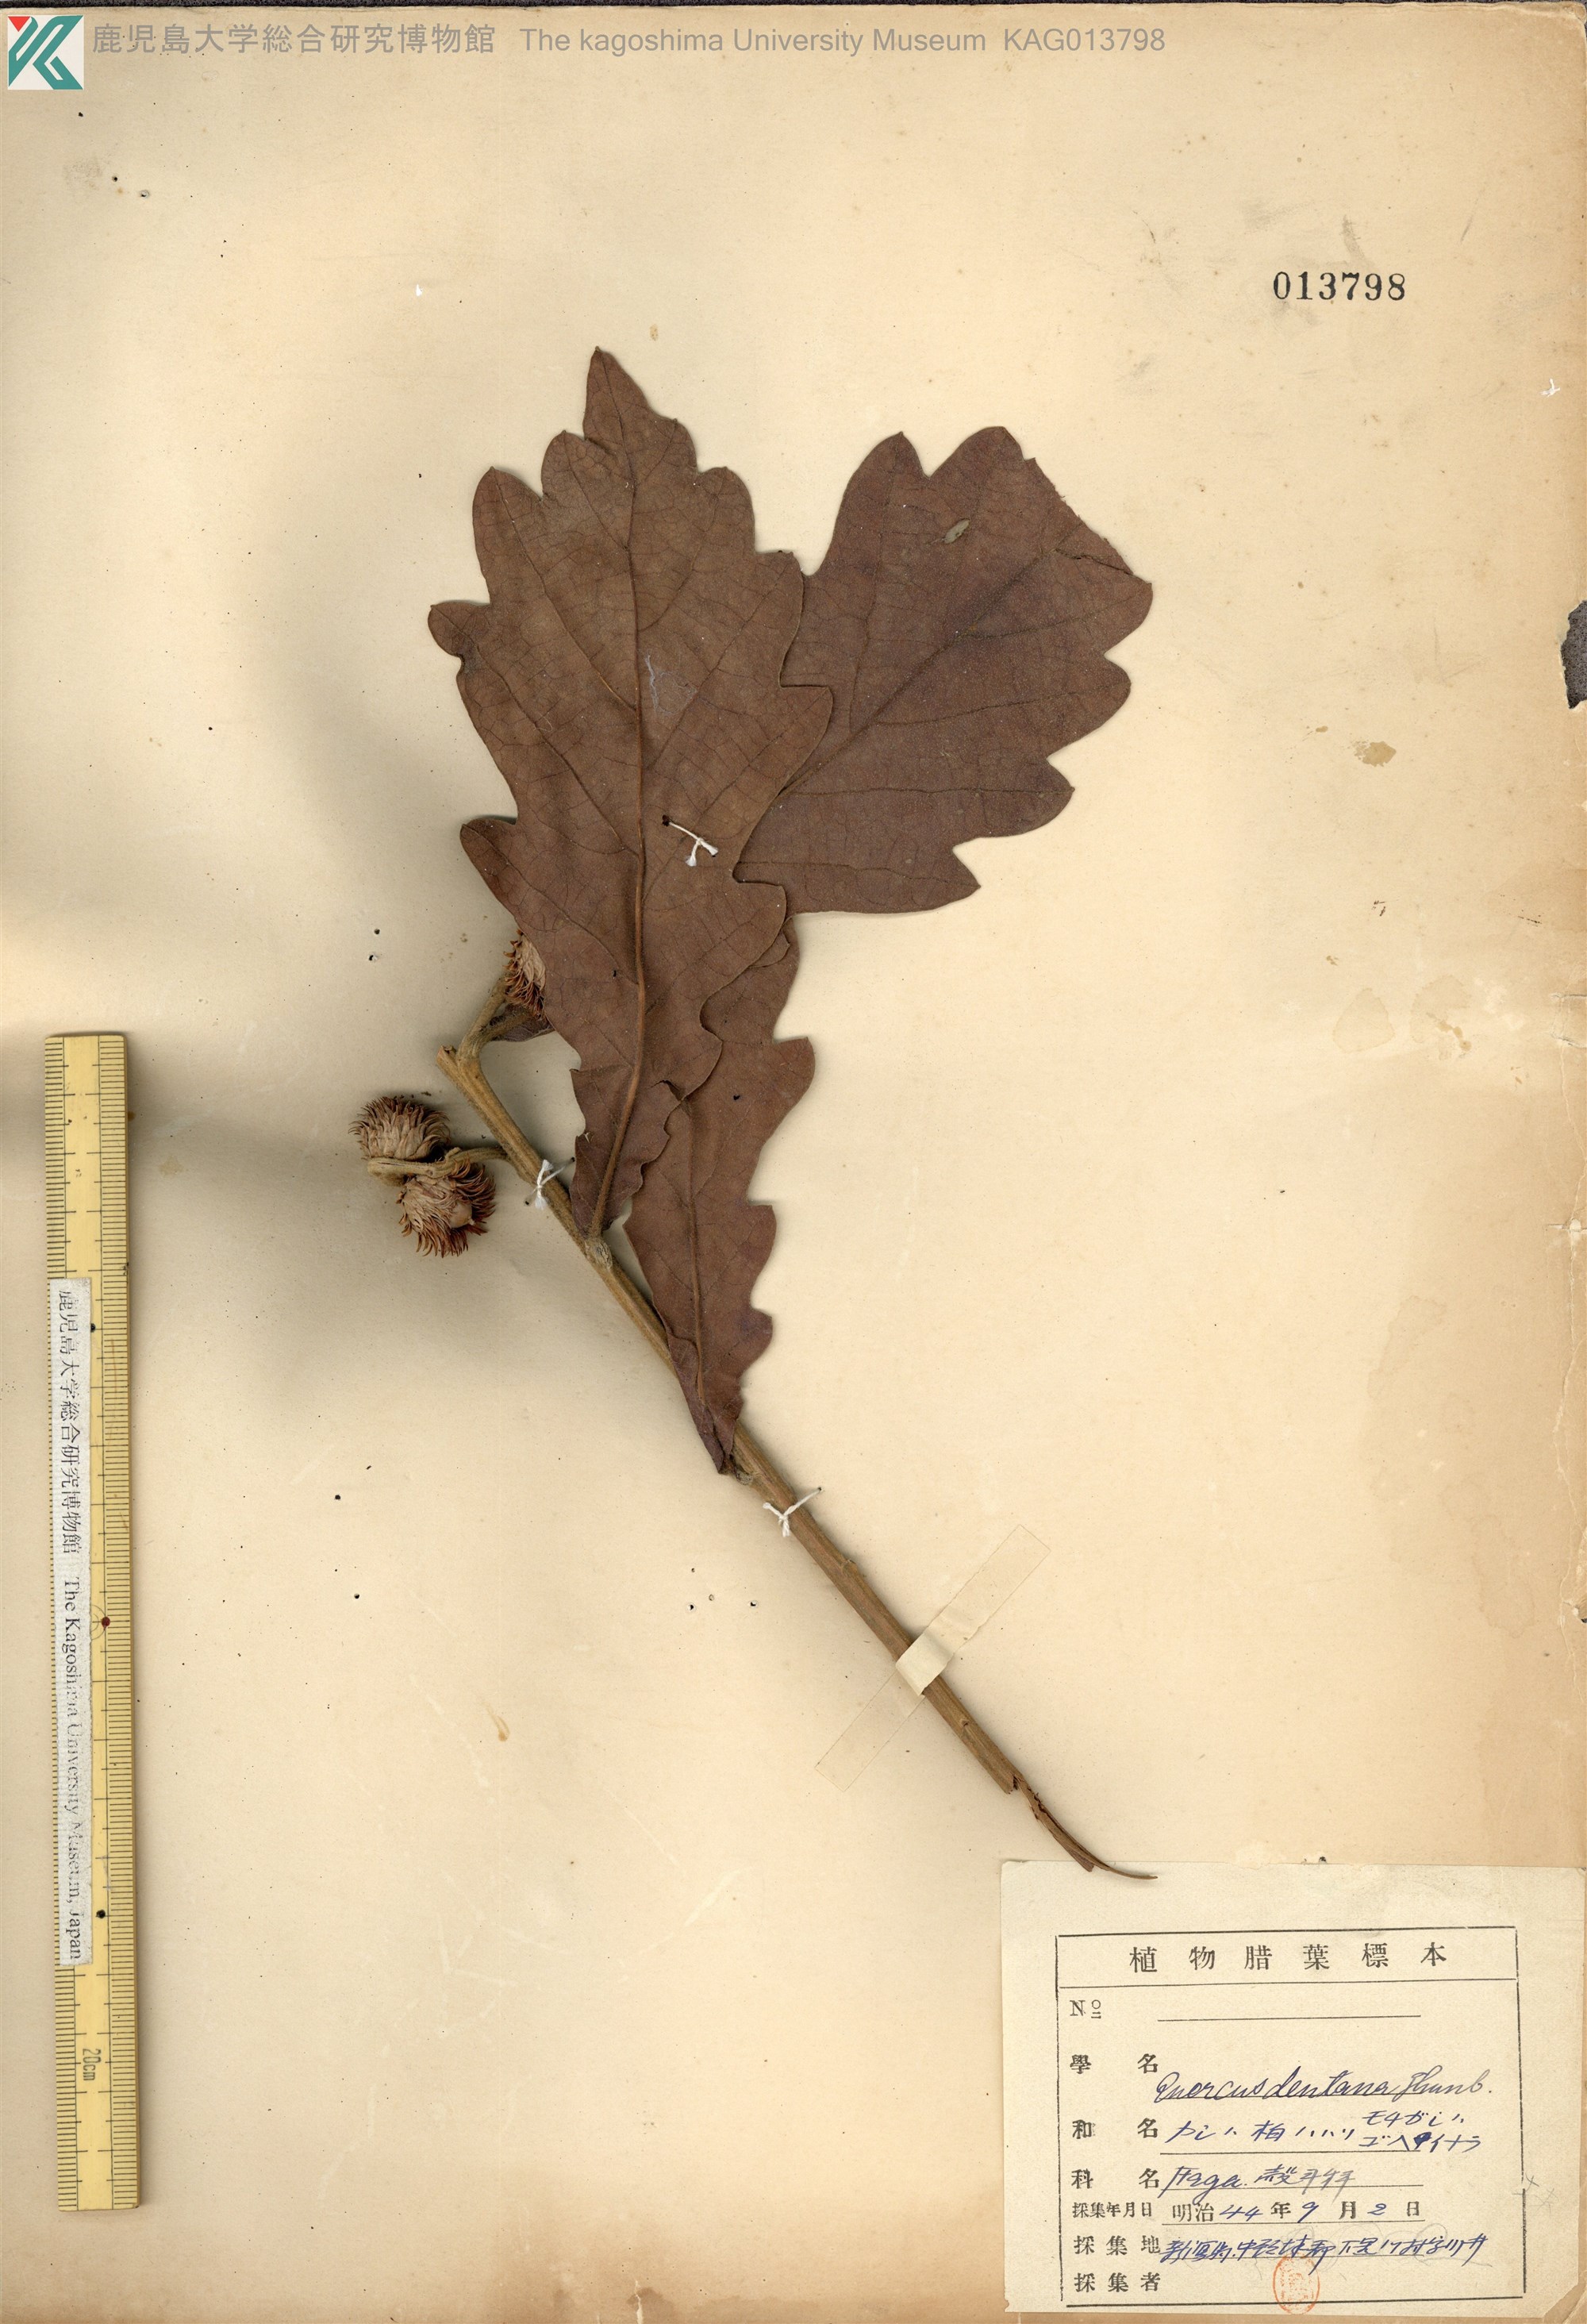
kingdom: Plantae
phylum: Tracheophyta
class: Magnoliopsida
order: Fagales
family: Fagaceae
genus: Quercus
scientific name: Quercus dentata
